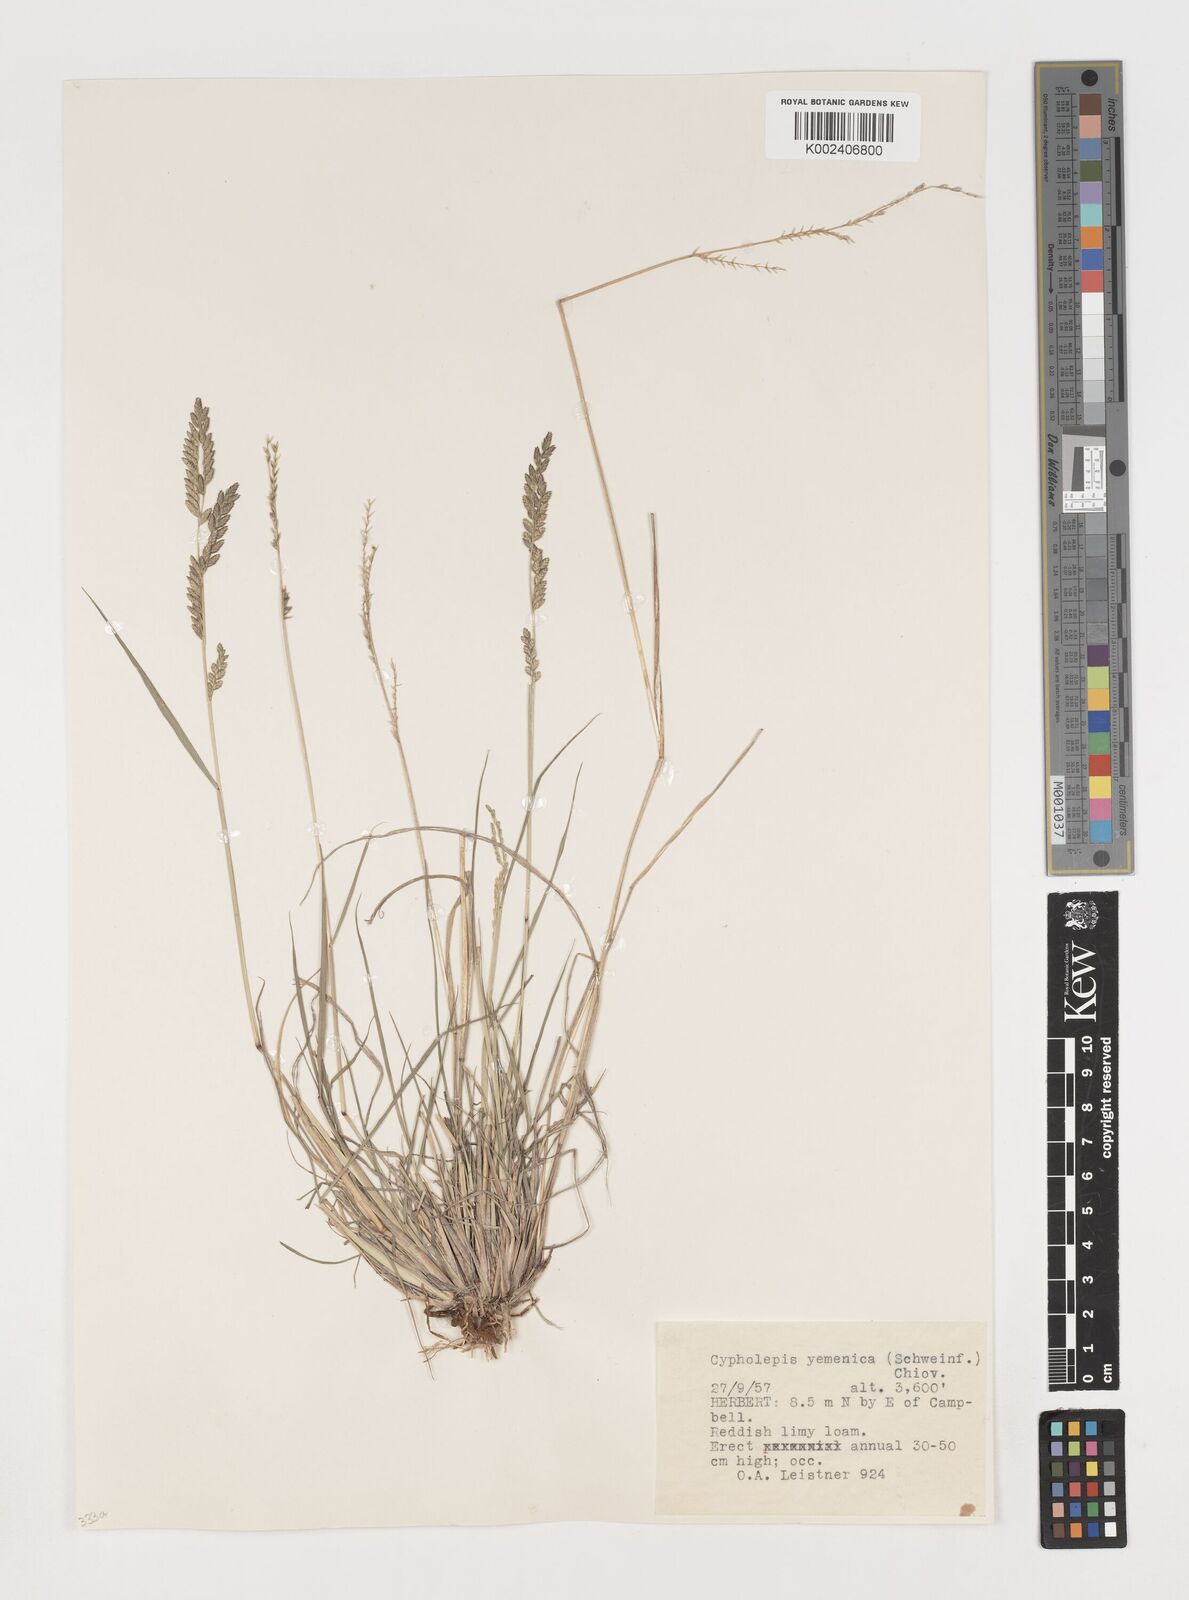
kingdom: Plantae
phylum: Tracheophyta
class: Liliopsida
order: Poales
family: Poaceae
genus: Disakisperma
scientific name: Disakisperma yemenicum
